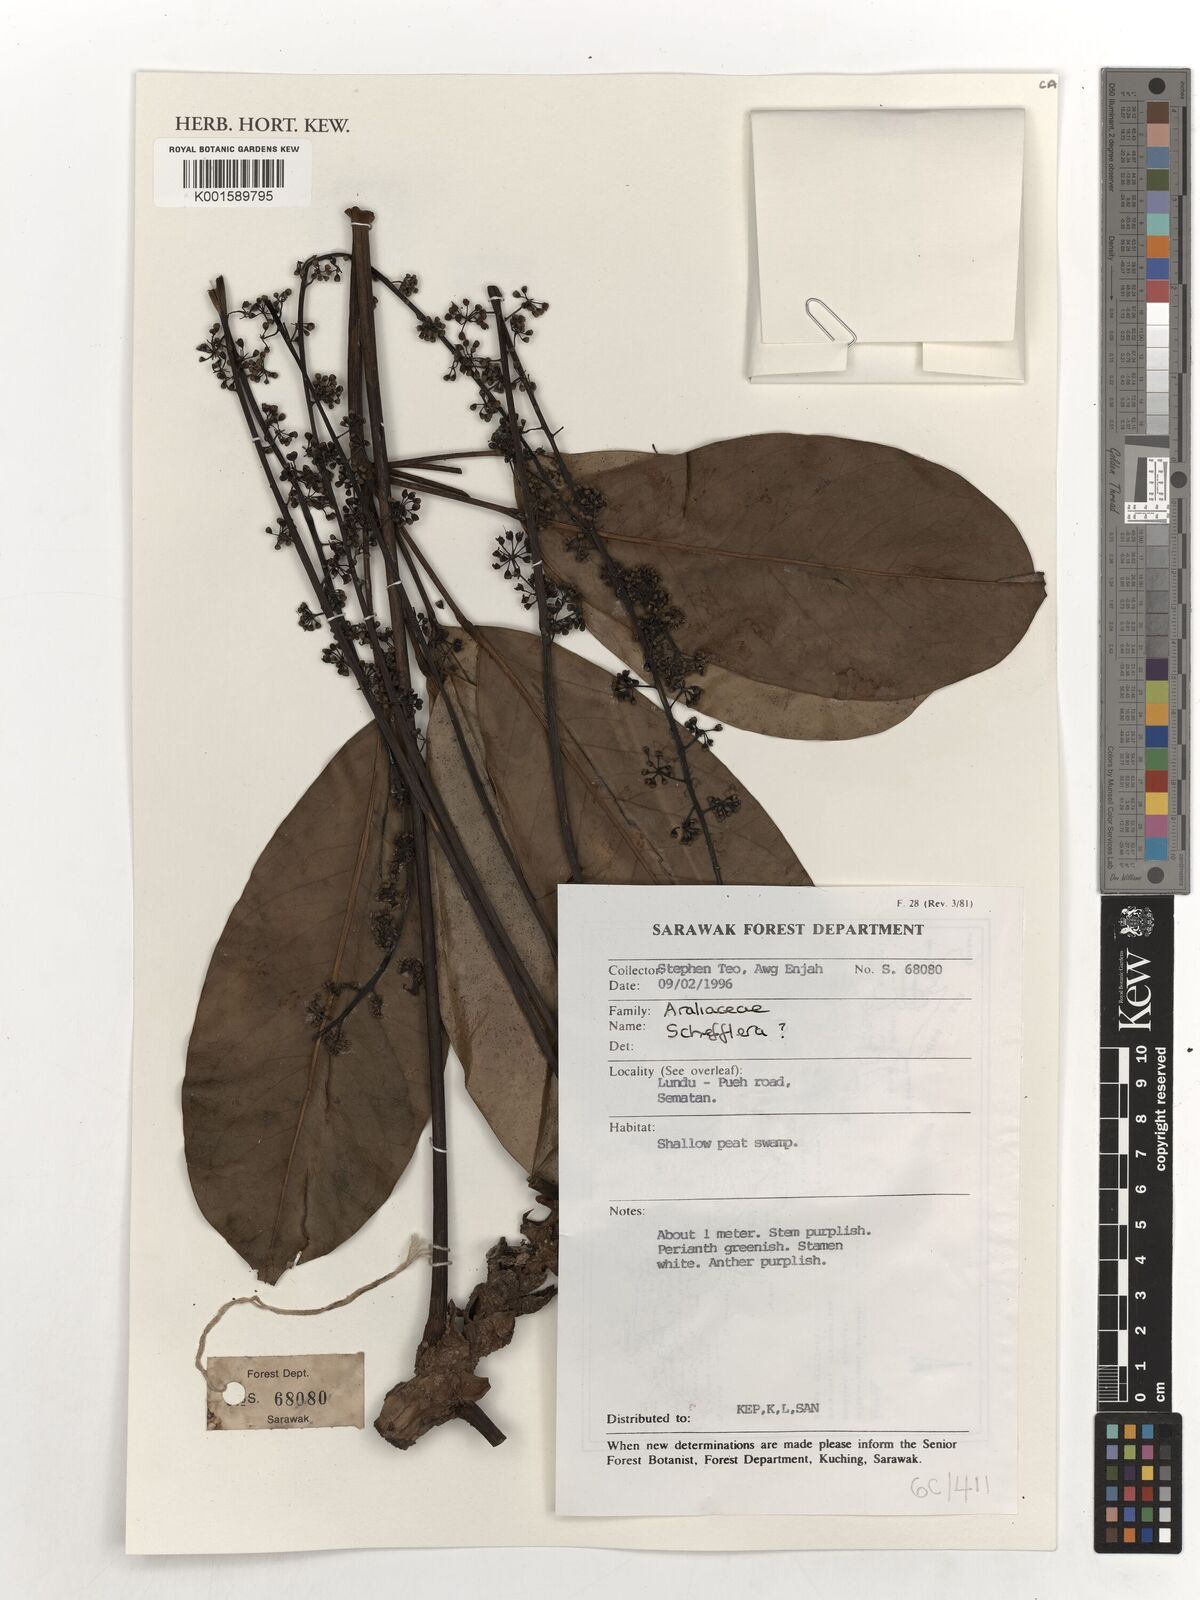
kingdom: Plantae
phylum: Tracheophyta
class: Magnoliopsida
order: Apiales
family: Araliaceae
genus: Schefflera
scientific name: Schefflera
